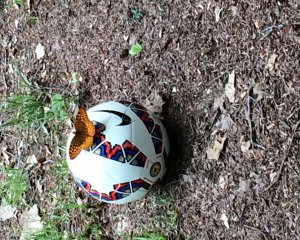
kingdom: Animalia
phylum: Arthropoda
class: Insecta
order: Lepidoptera
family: Nymphalidae
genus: Speyeria
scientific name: Speyeria cybele
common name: Great Spangled Fritillary
